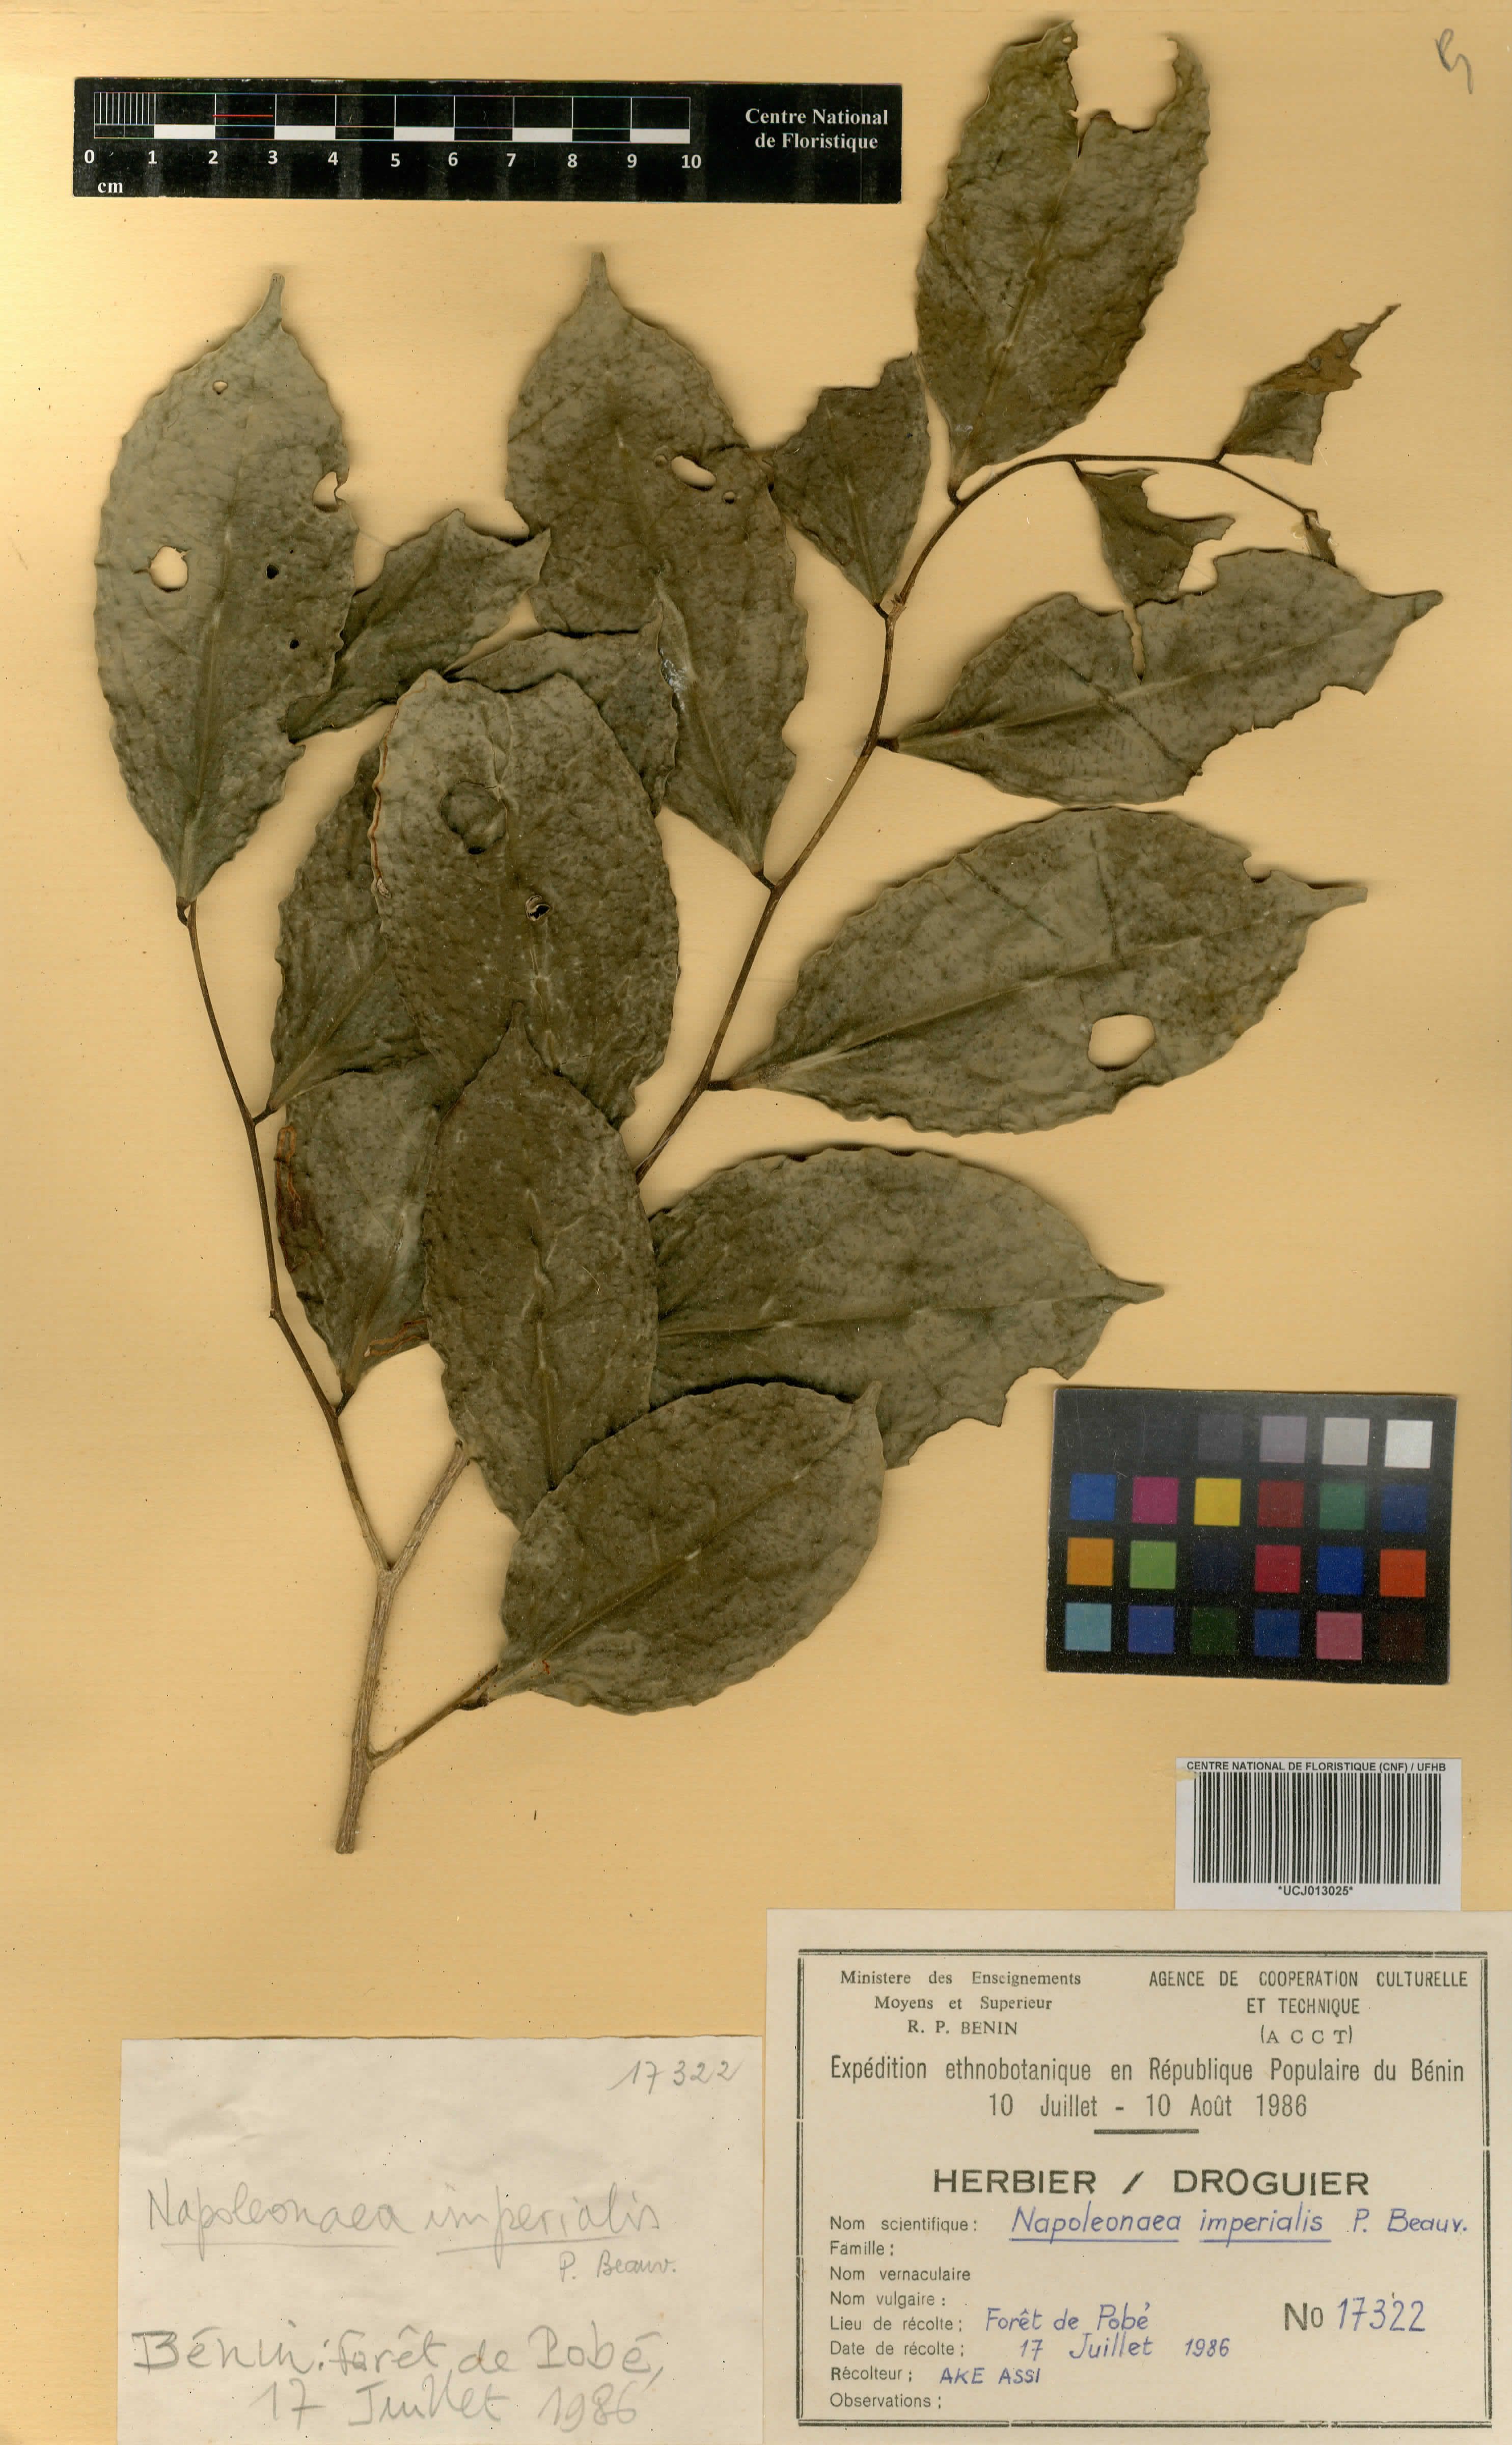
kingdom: Plantae
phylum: Tracheophyta
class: Magnoliopsida
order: Ericales
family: Lecythidaceae
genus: Napoleonaea
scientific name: Napoleonaea imperialis
